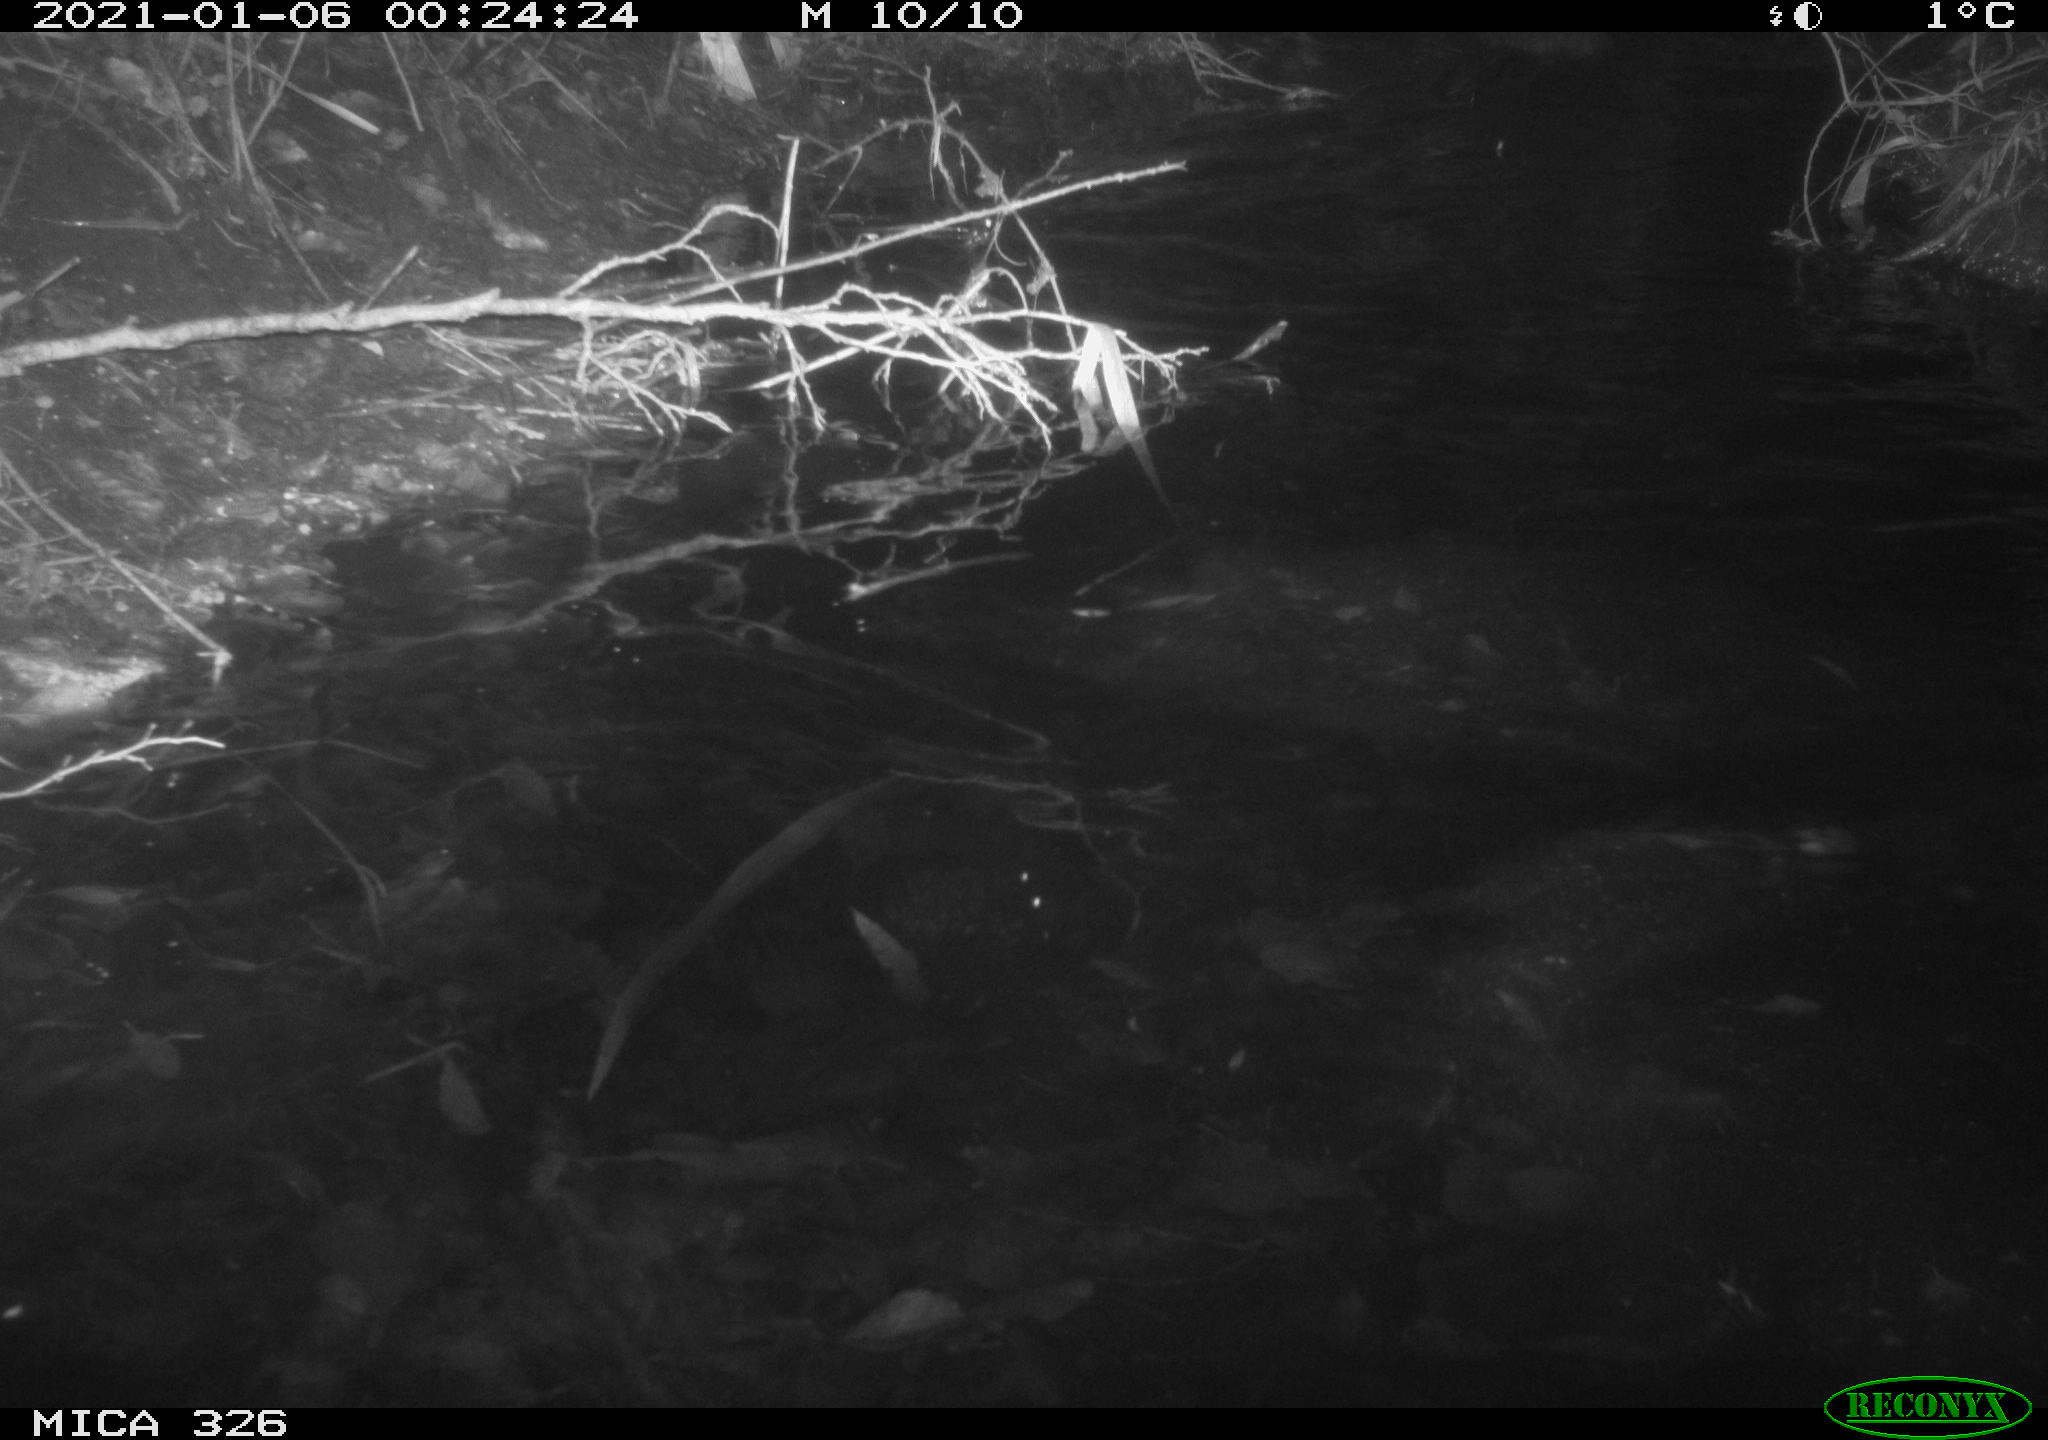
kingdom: Animalia
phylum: Chordata
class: Mammalia
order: Rodentia
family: Myocastoridae
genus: Myocastor
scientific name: Myocastor coypus
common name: Coypu
